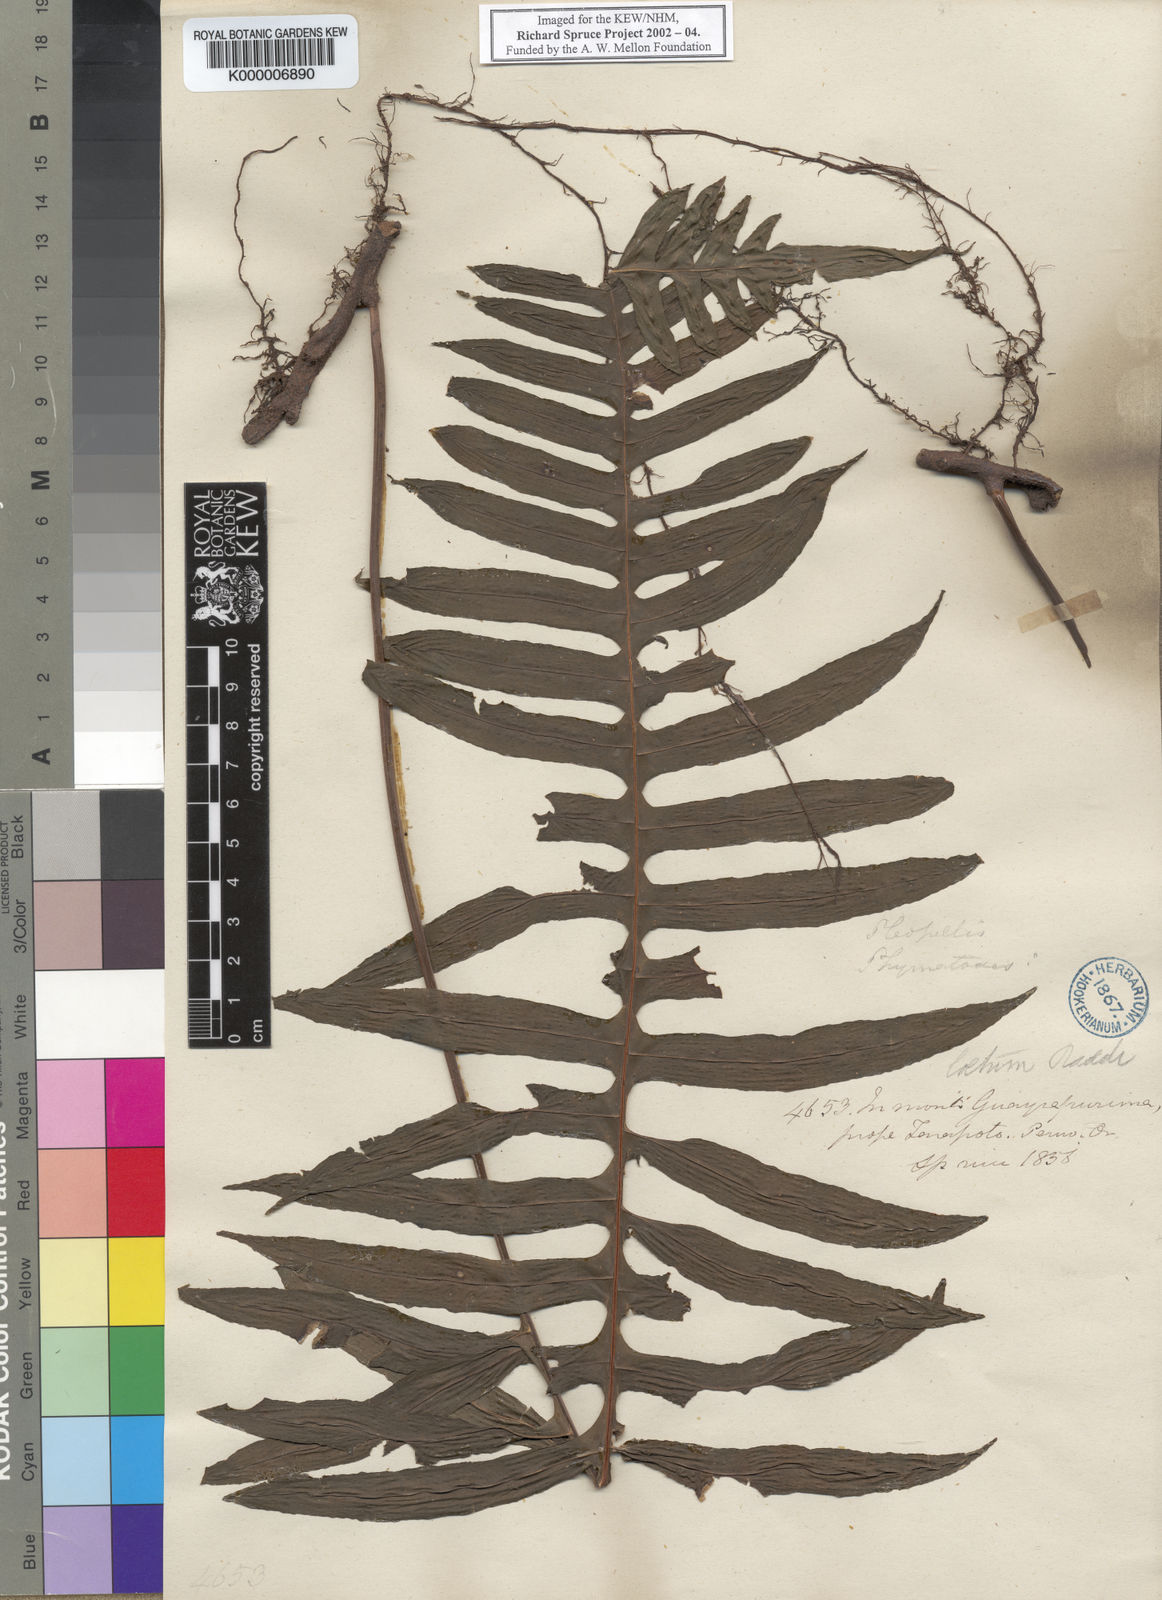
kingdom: Plantae
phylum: Tracheophyta
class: Polypodiopsida
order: Polypodiales
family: Polypodiaceae
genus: Serpocaulon
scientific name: Serpocaulon loriceum
